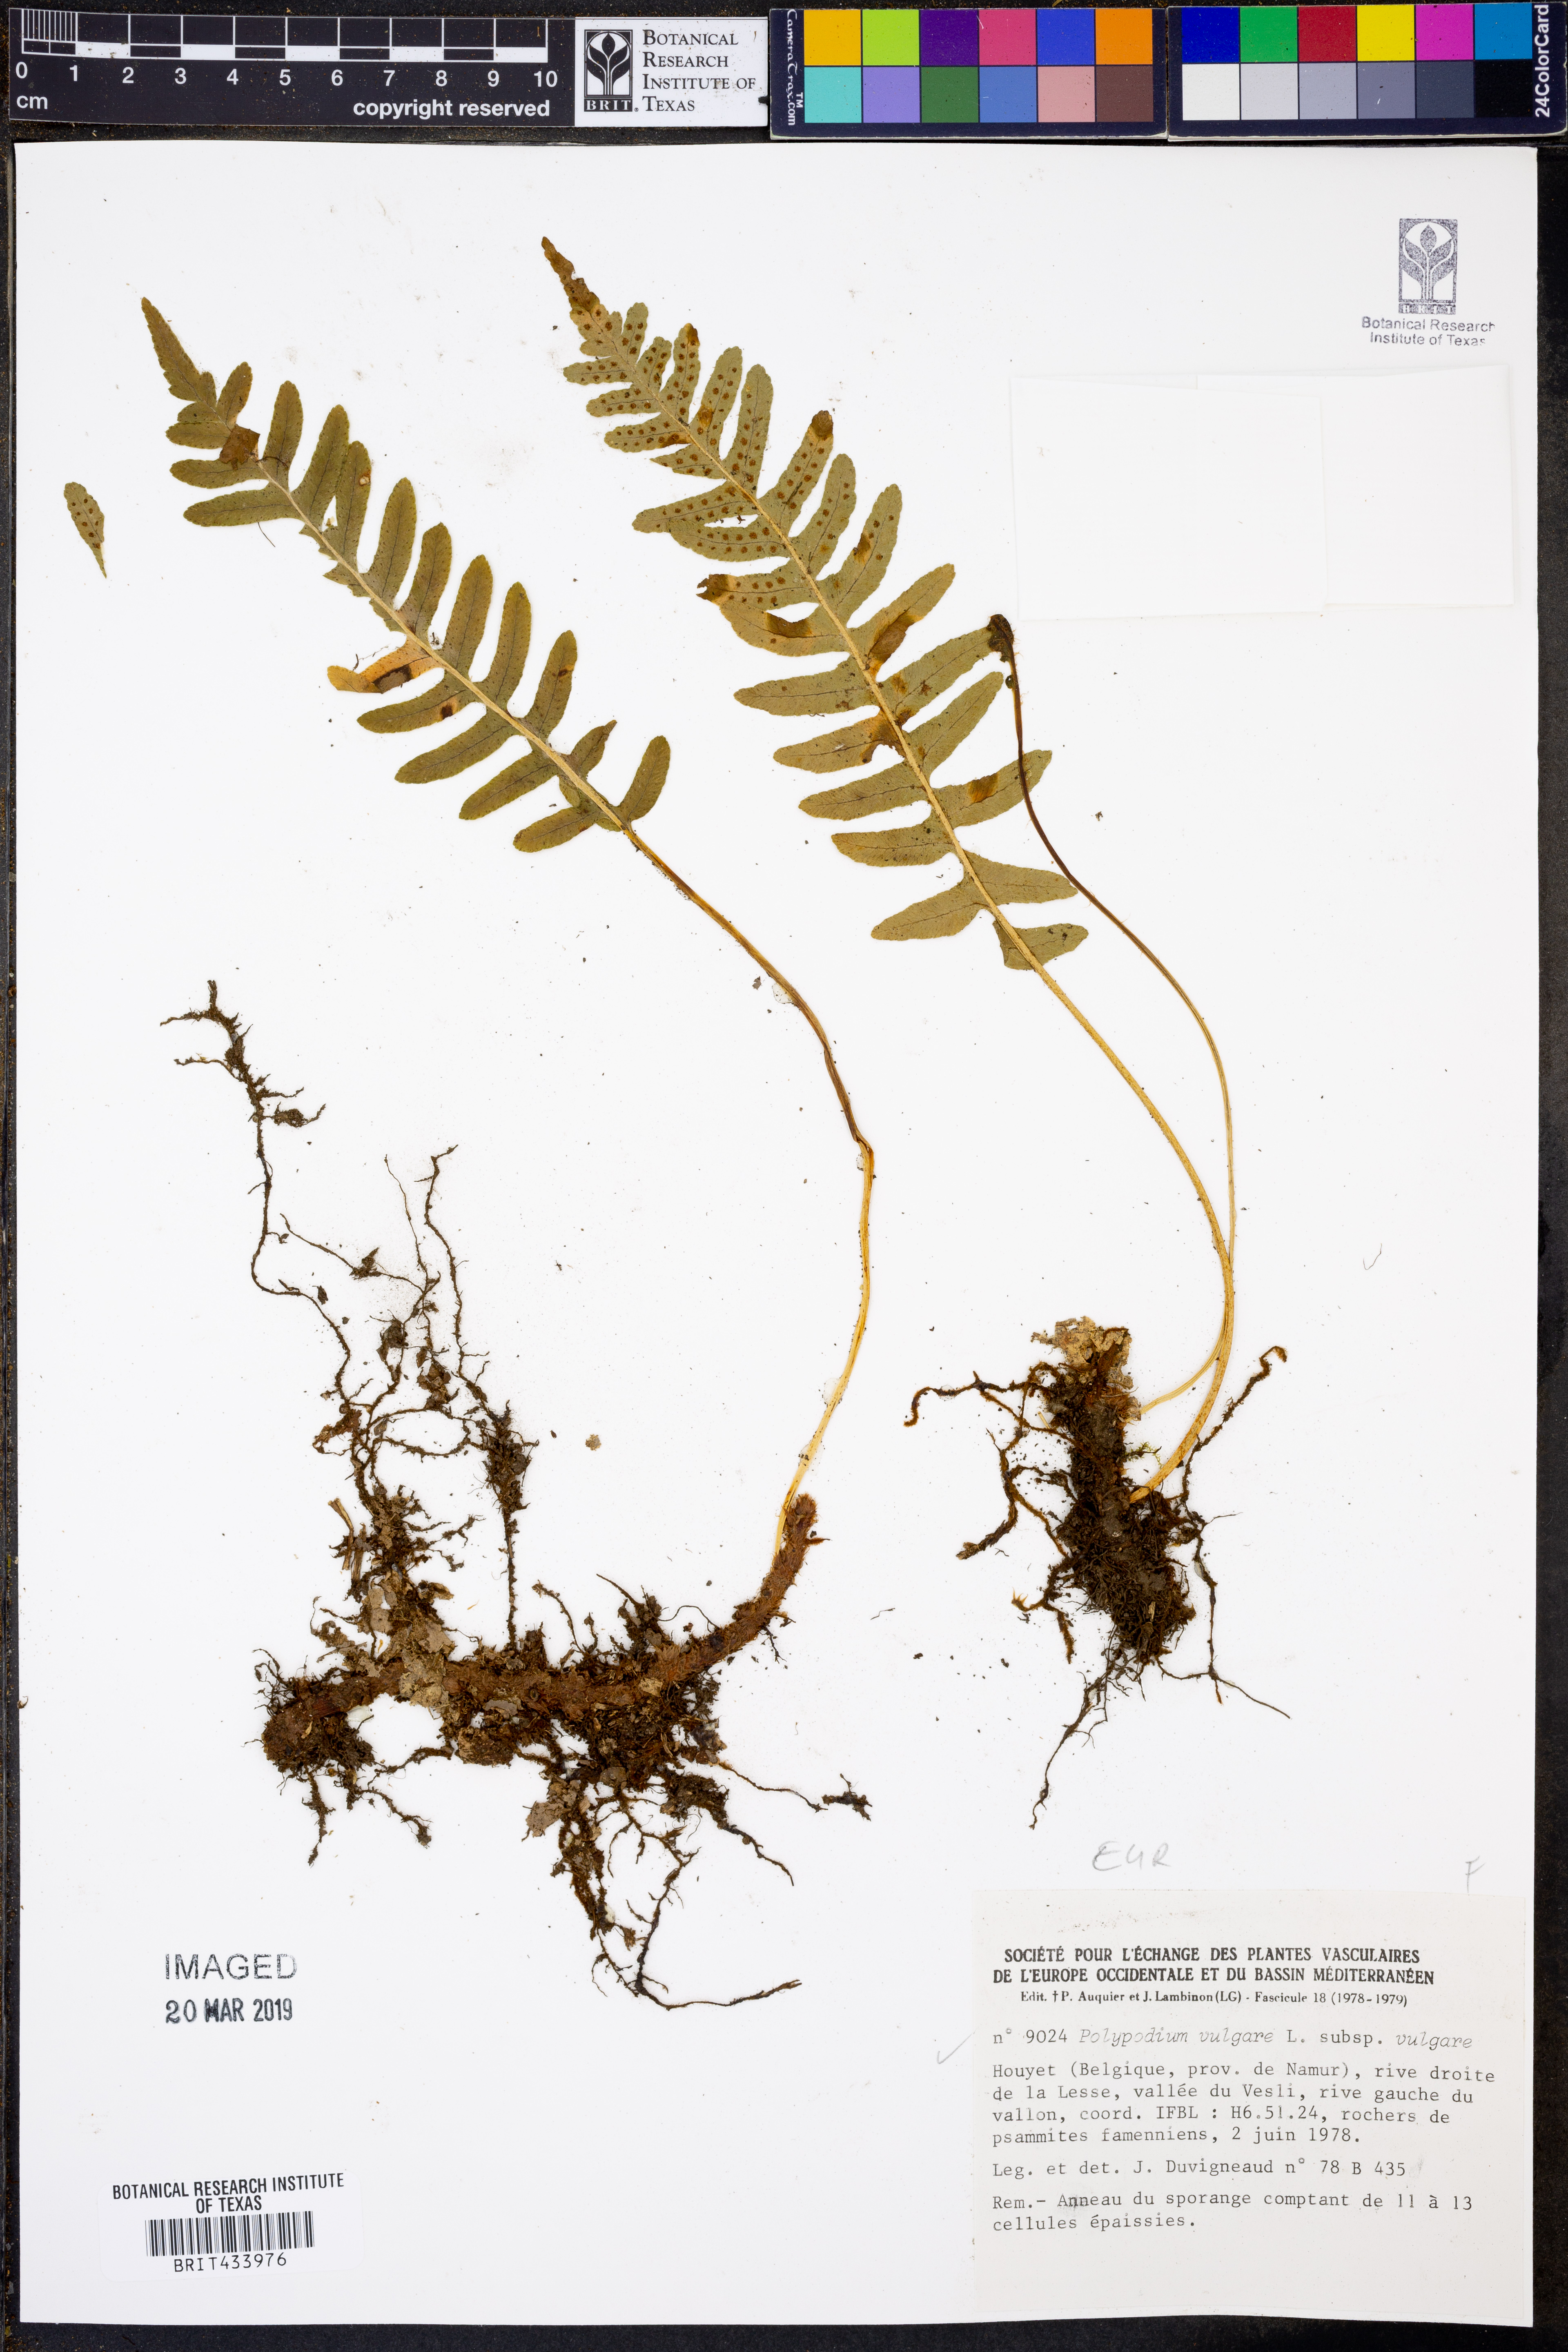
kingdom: Plantae
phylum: Tracheophyta
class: Polypodiopsida
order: Polypodiales
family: Polypodiaceae
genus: Polypodium
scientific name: Polypodium vulgare
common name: Common polypody
